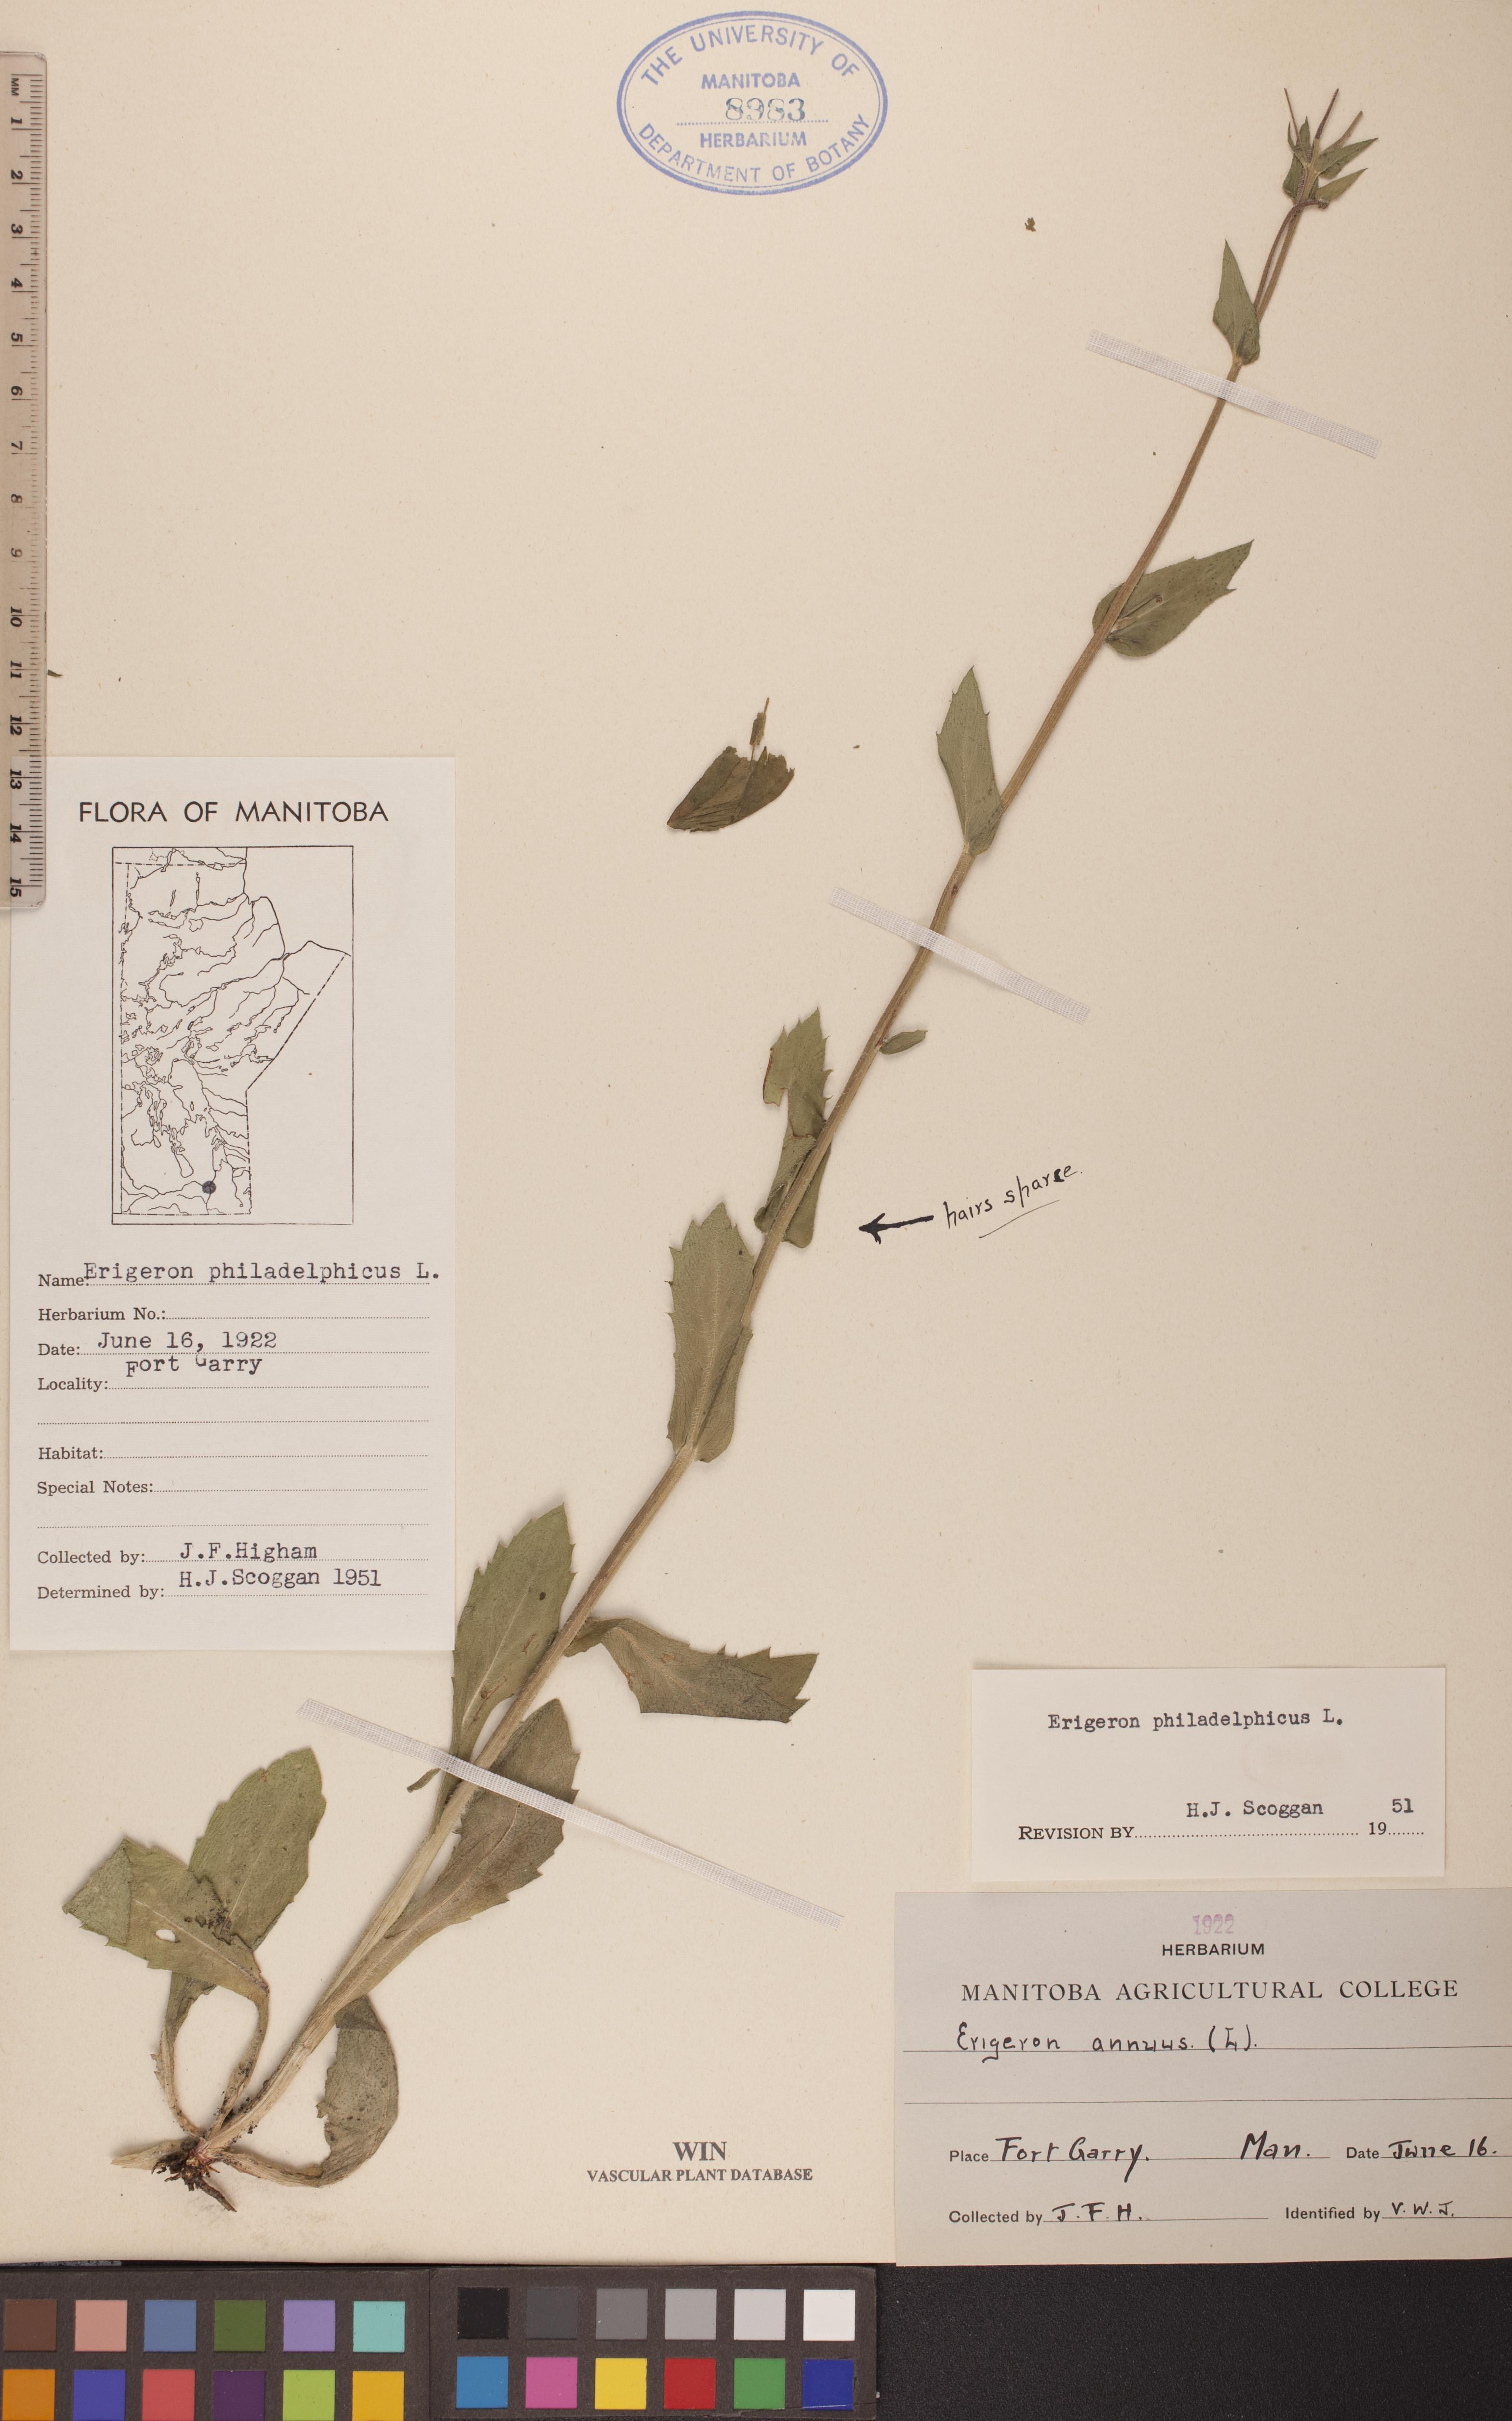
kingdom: Plantae
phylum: Tracheophyta
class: Magnoliopsida
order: Asterales
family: Asteraceae
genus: Erigeron
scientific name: Erigeron philadelphicus
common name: Robin's-plantain
